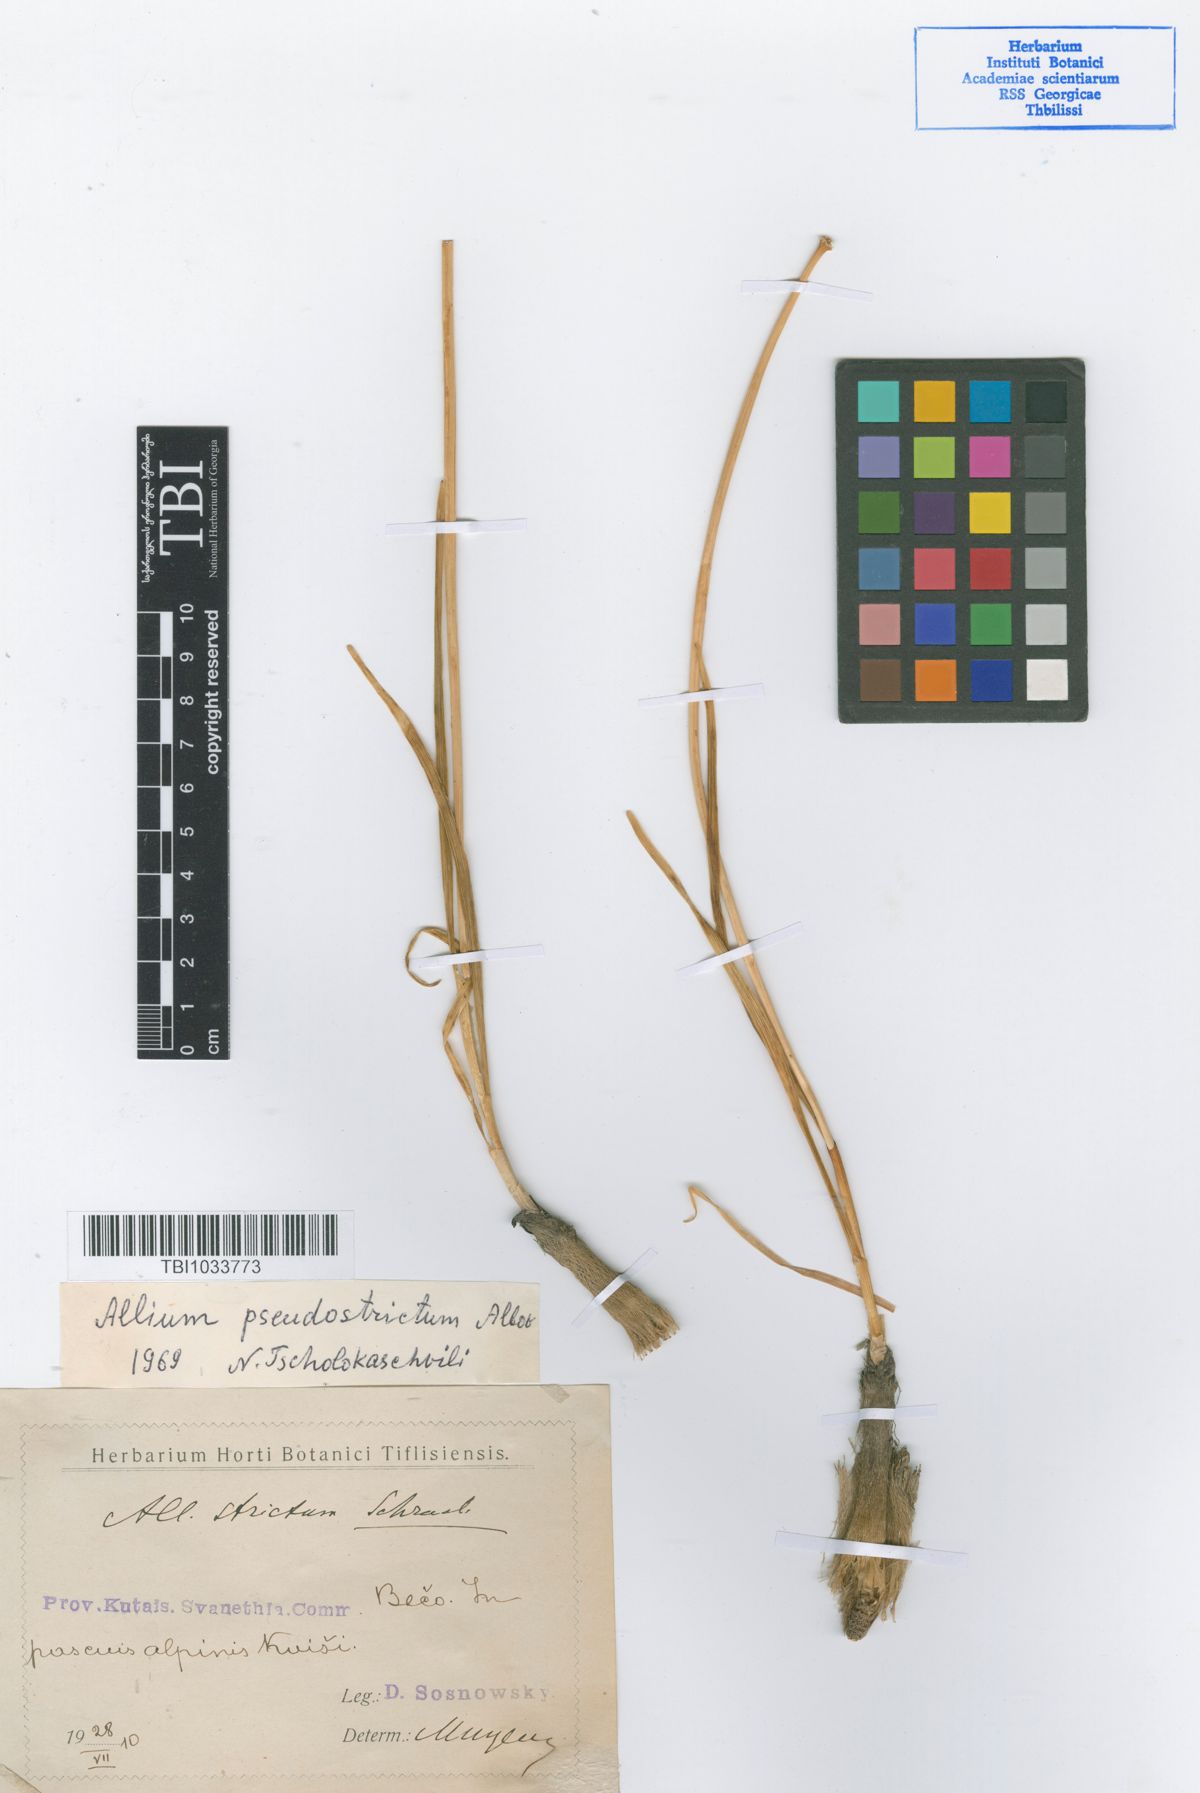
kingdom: Plantae
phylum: Tracheophyta
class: Liliopsida
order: Asparagales
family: Amaryllidaceae
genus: Allium
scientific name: Allium pseudostrictum
